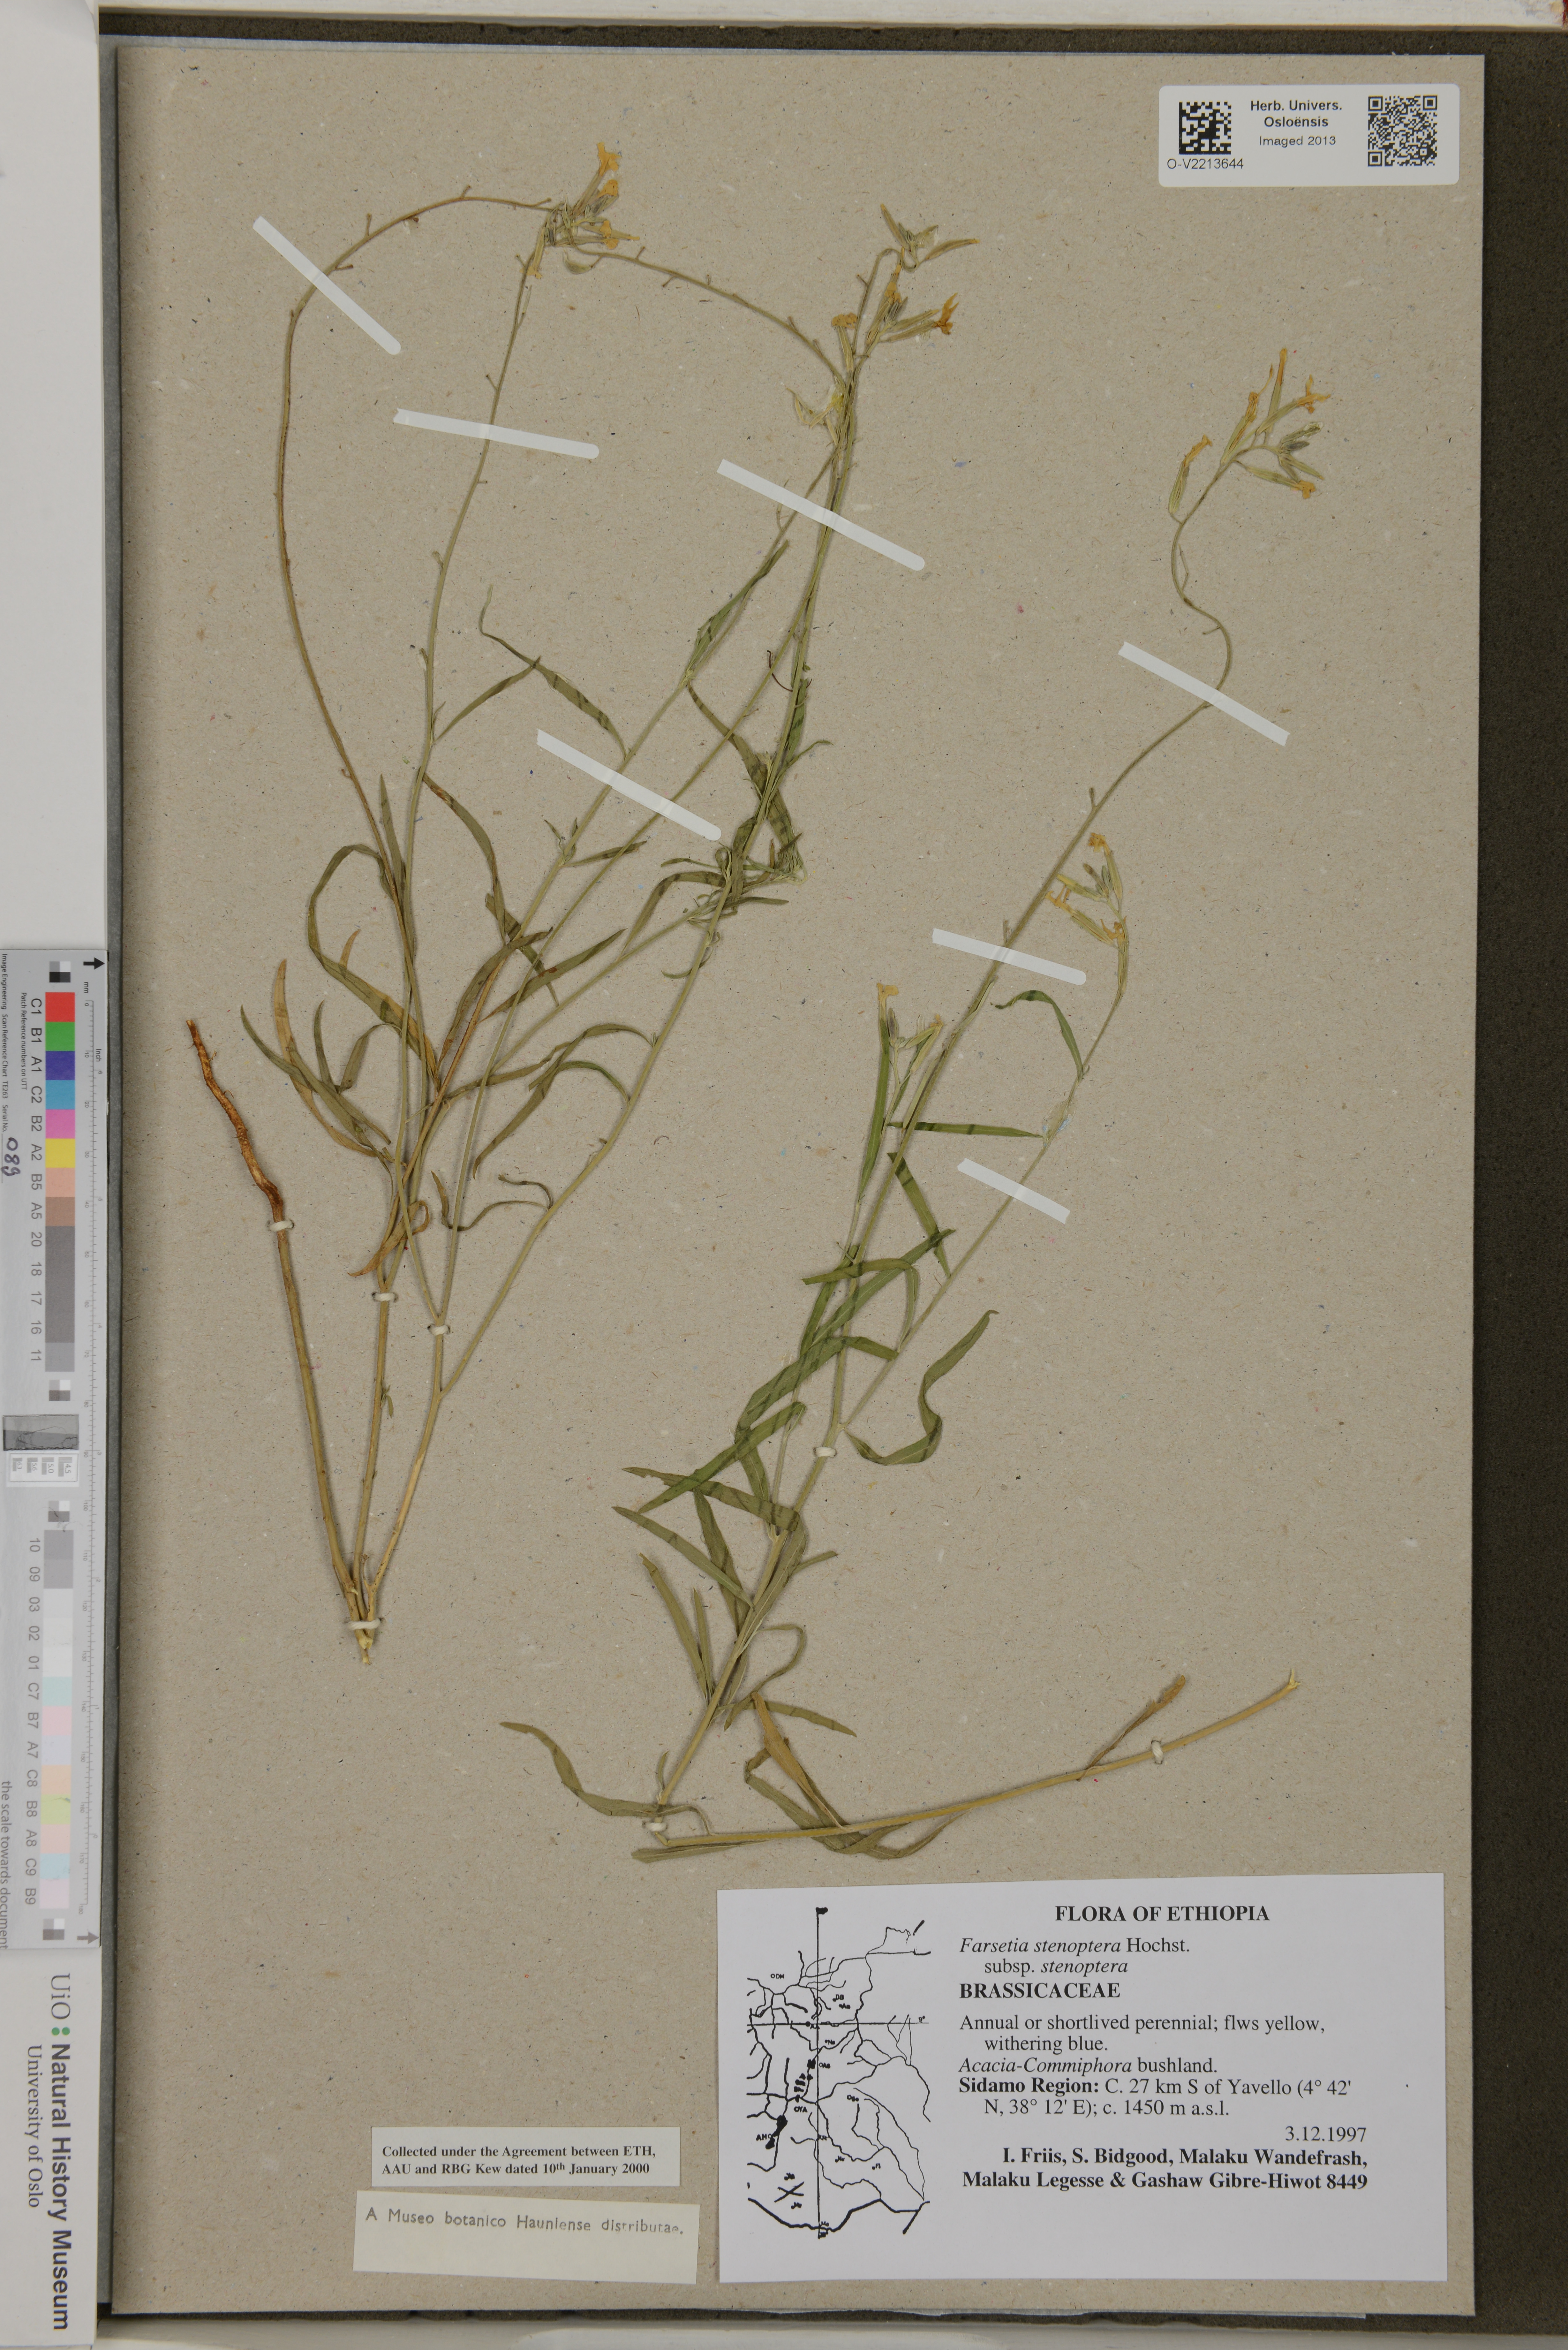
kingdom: Plantae
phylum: Tracheophyta
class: Magnoliopsida
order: Brassicales
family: Brassicaceae
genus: Farsetia
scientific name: Farsetia stenoptera
